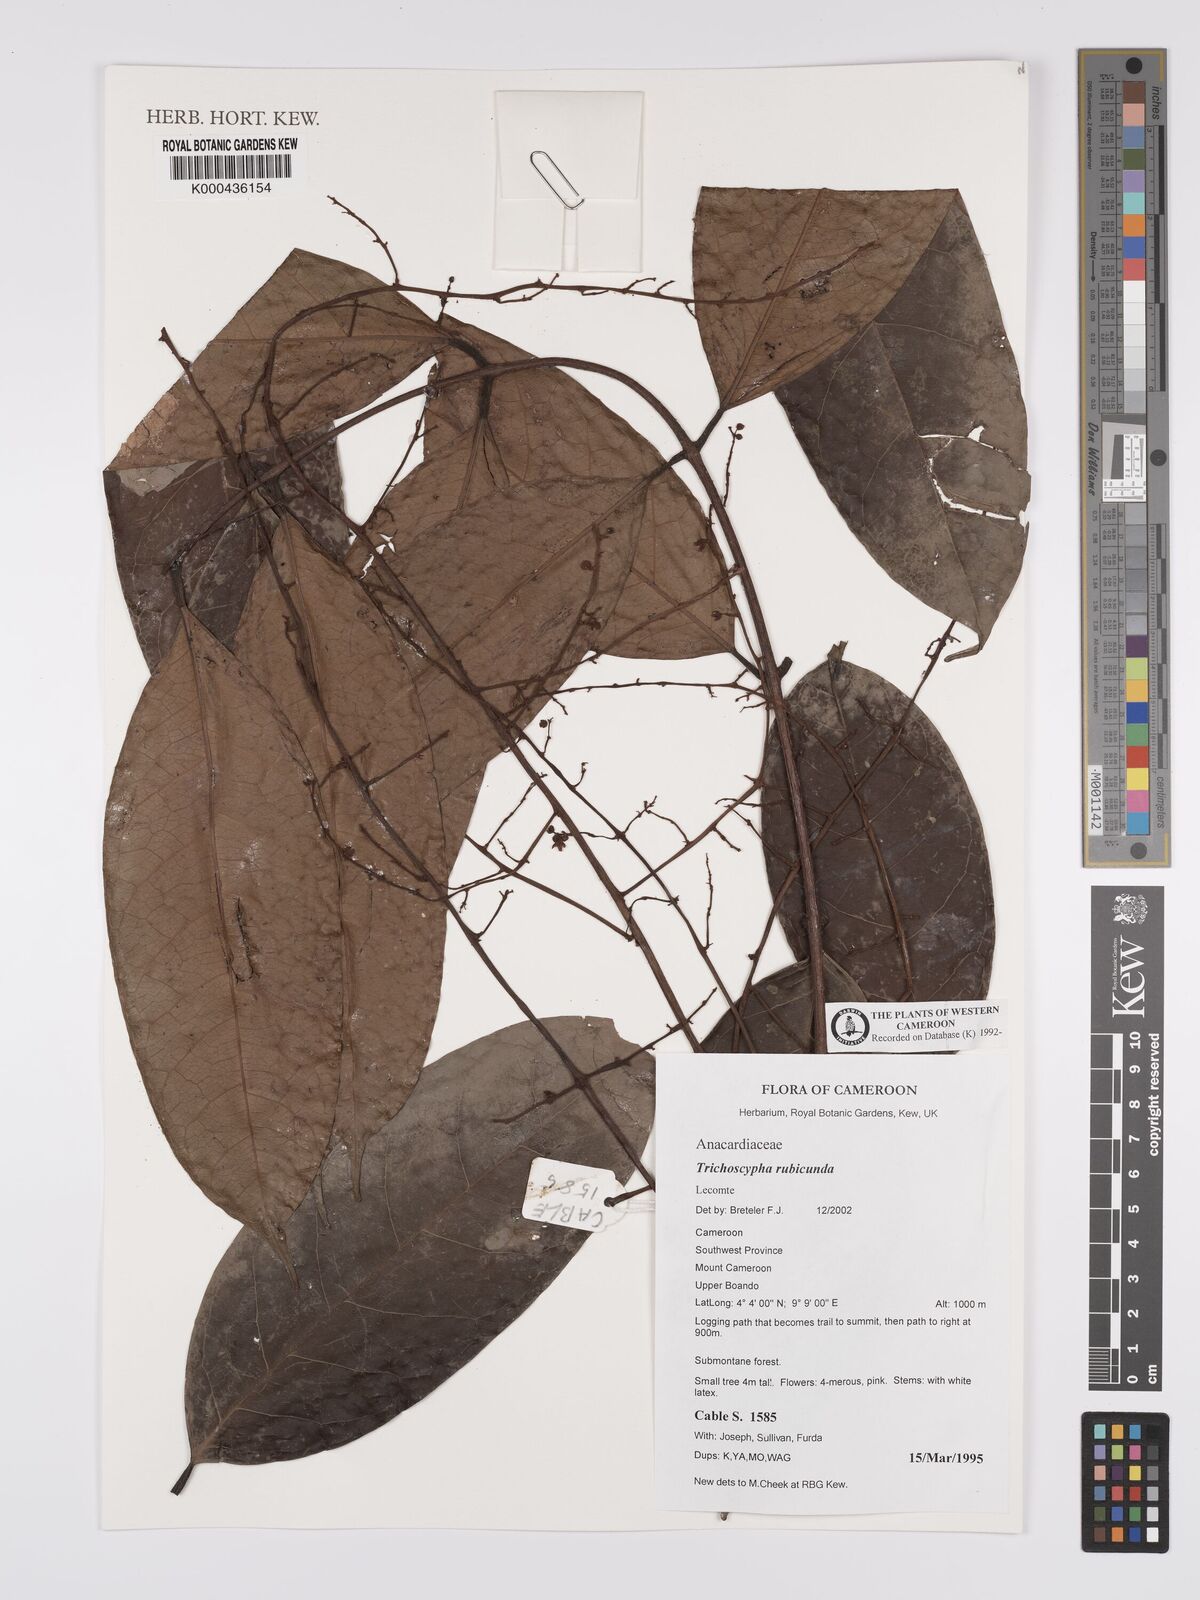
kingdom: Plantae
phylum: Tracheophyta
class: Magnoliopsida
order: Sapindales
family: Anacardiaceae
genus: Trichoscypha
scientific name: Trichoscypha rubicunda
